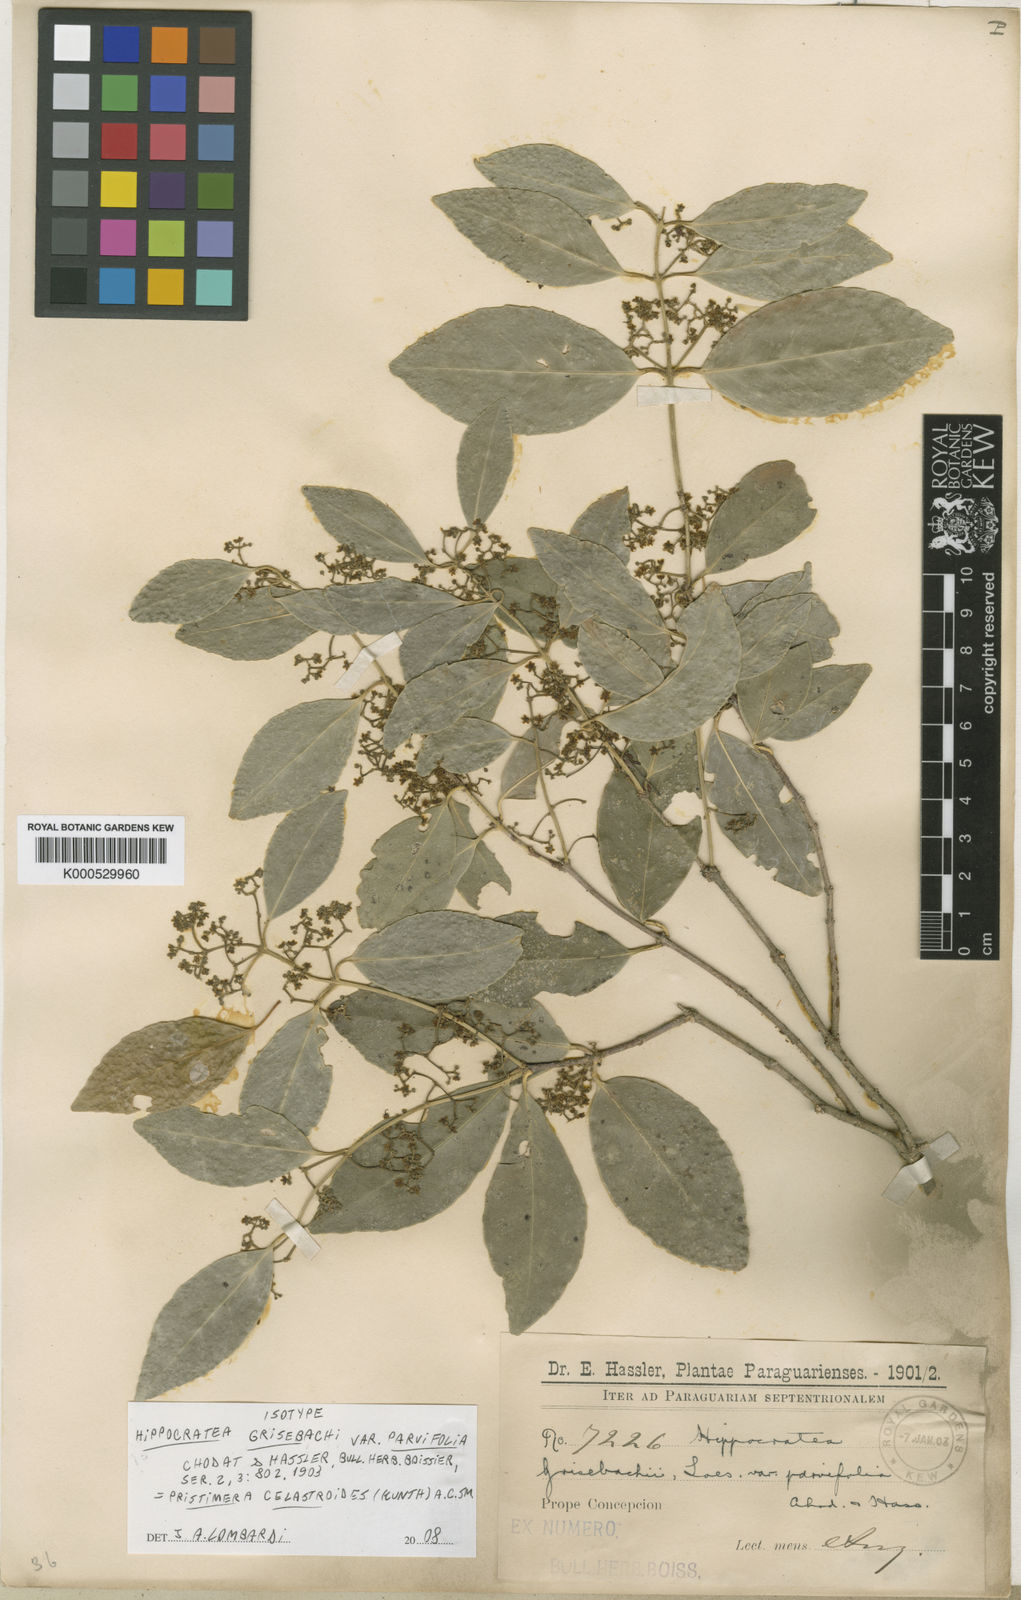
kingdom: Plantae
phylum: Tracheophyta
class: Magnoliopsida
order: Celastrales
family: Celastraceae
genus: Pristimera
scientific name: Pristimera celastroides
